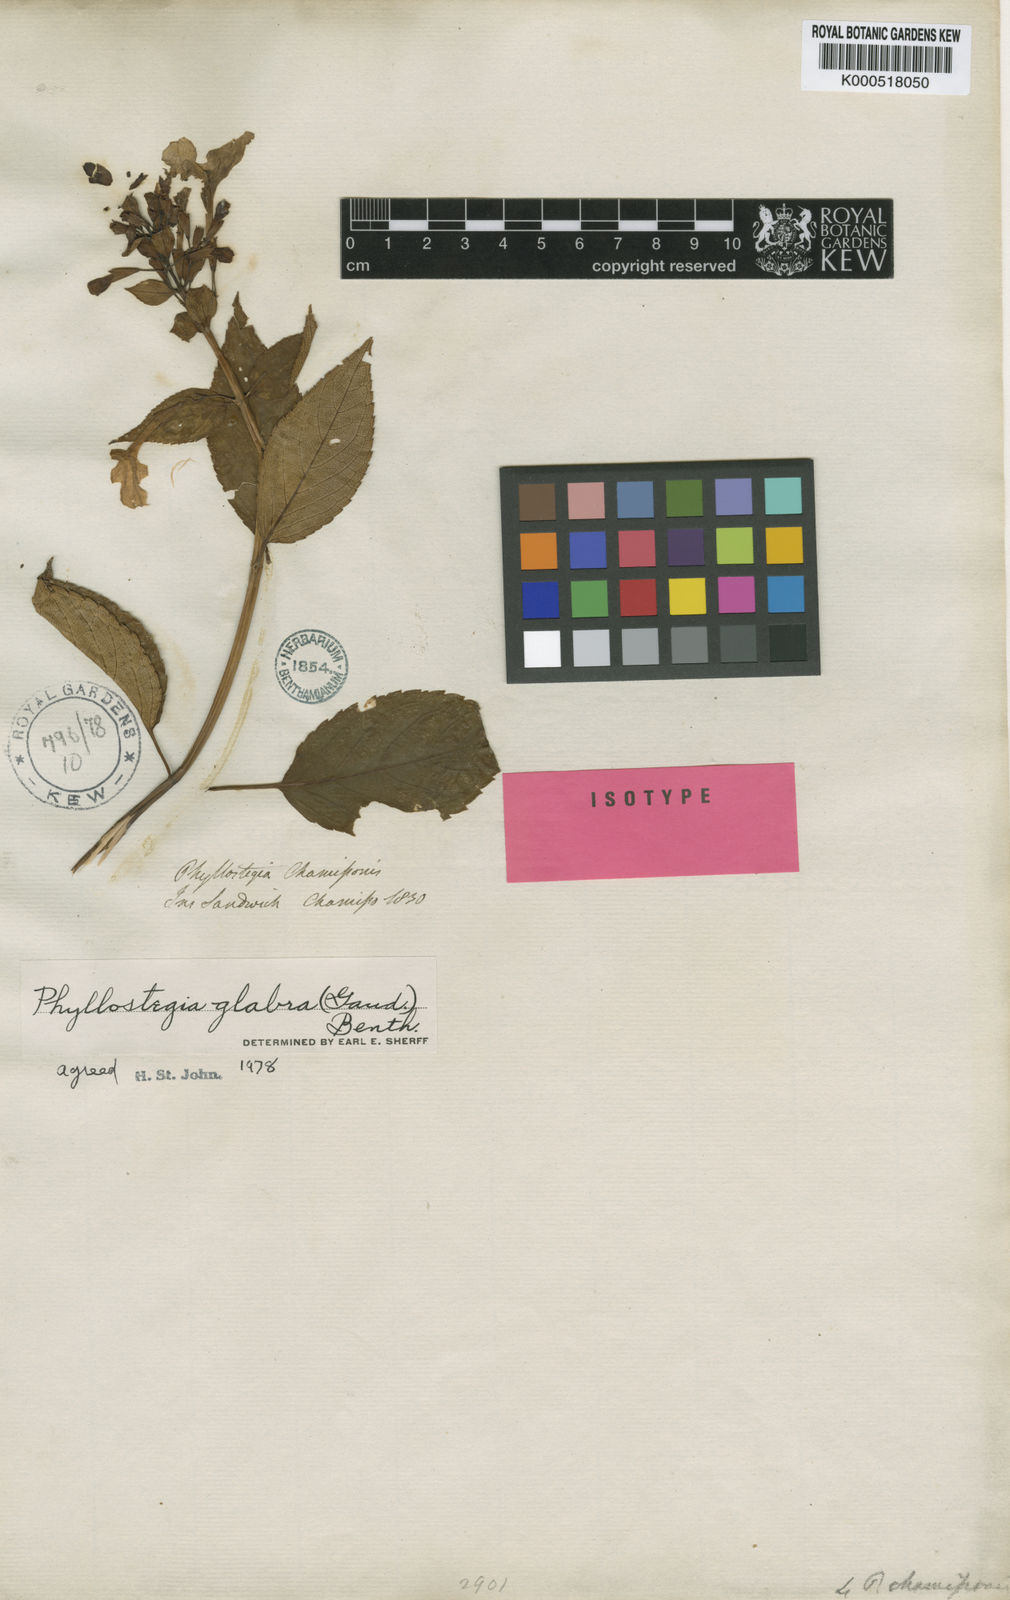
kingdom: Plantae
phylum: Tracheophyta
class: Magnoliopsida
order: Lamiales
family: Lamiaceae
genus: Phyllostegia
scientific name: Phyllostegia glabra
